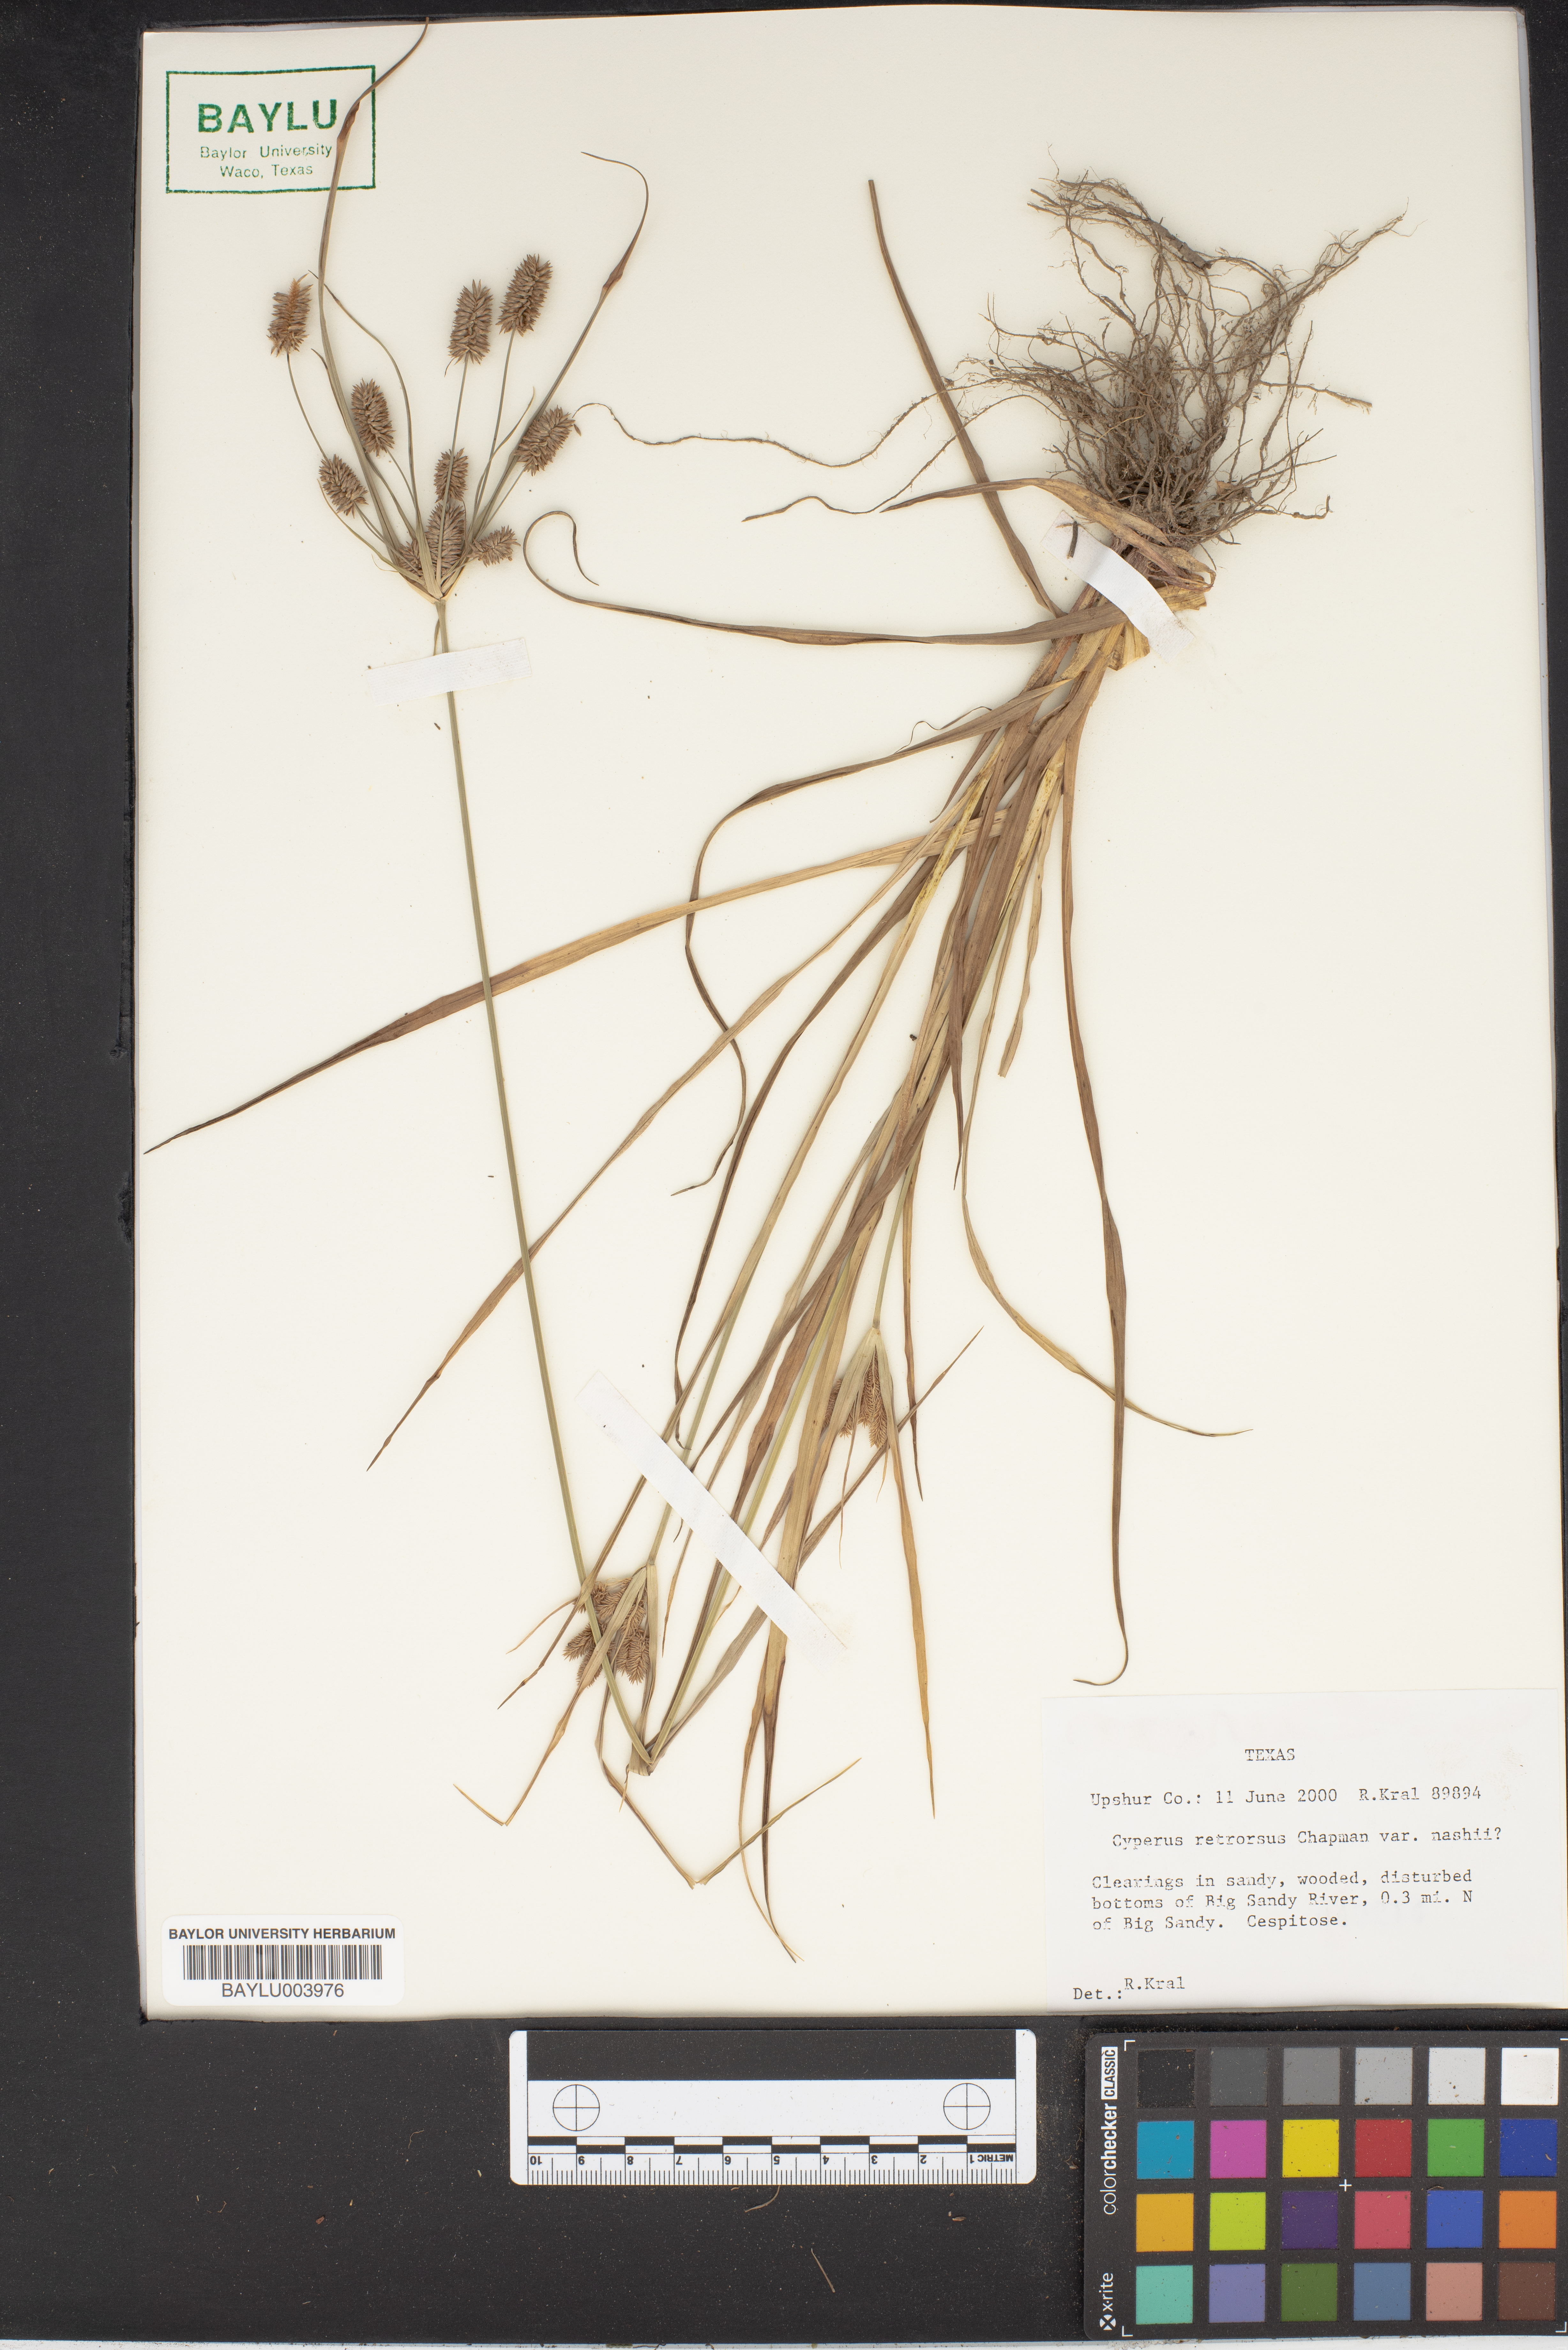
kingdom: Plantae
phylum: Tracheophyta
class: Liliopsida
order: Poales
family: Cyperaceae
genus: Cyperus
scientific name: Cyperus retrorsus
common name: Pinebarren flat sedge
